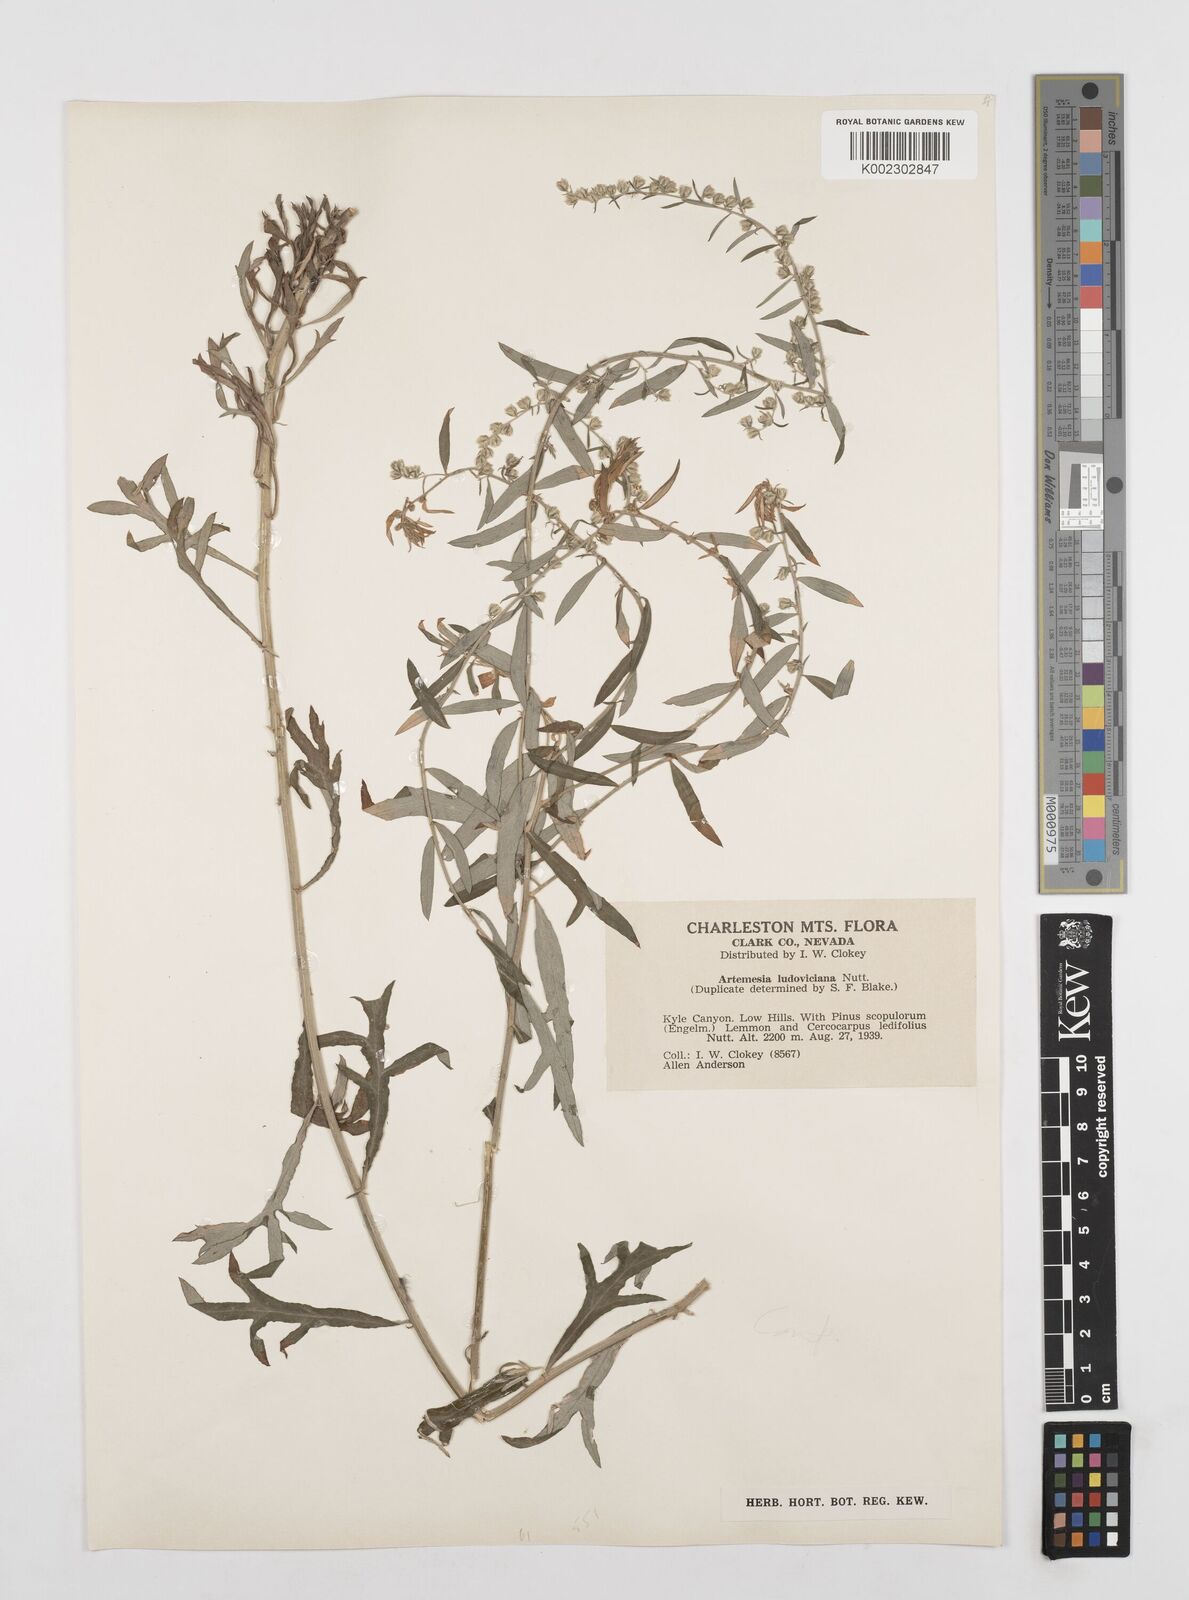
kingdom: Plantae
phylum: Tracheophyta
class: Magnoliopsida
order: Asterales
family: Asteraceae
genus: Artemisia
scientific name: Artemisia ludoviciana
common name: Western mugwort
